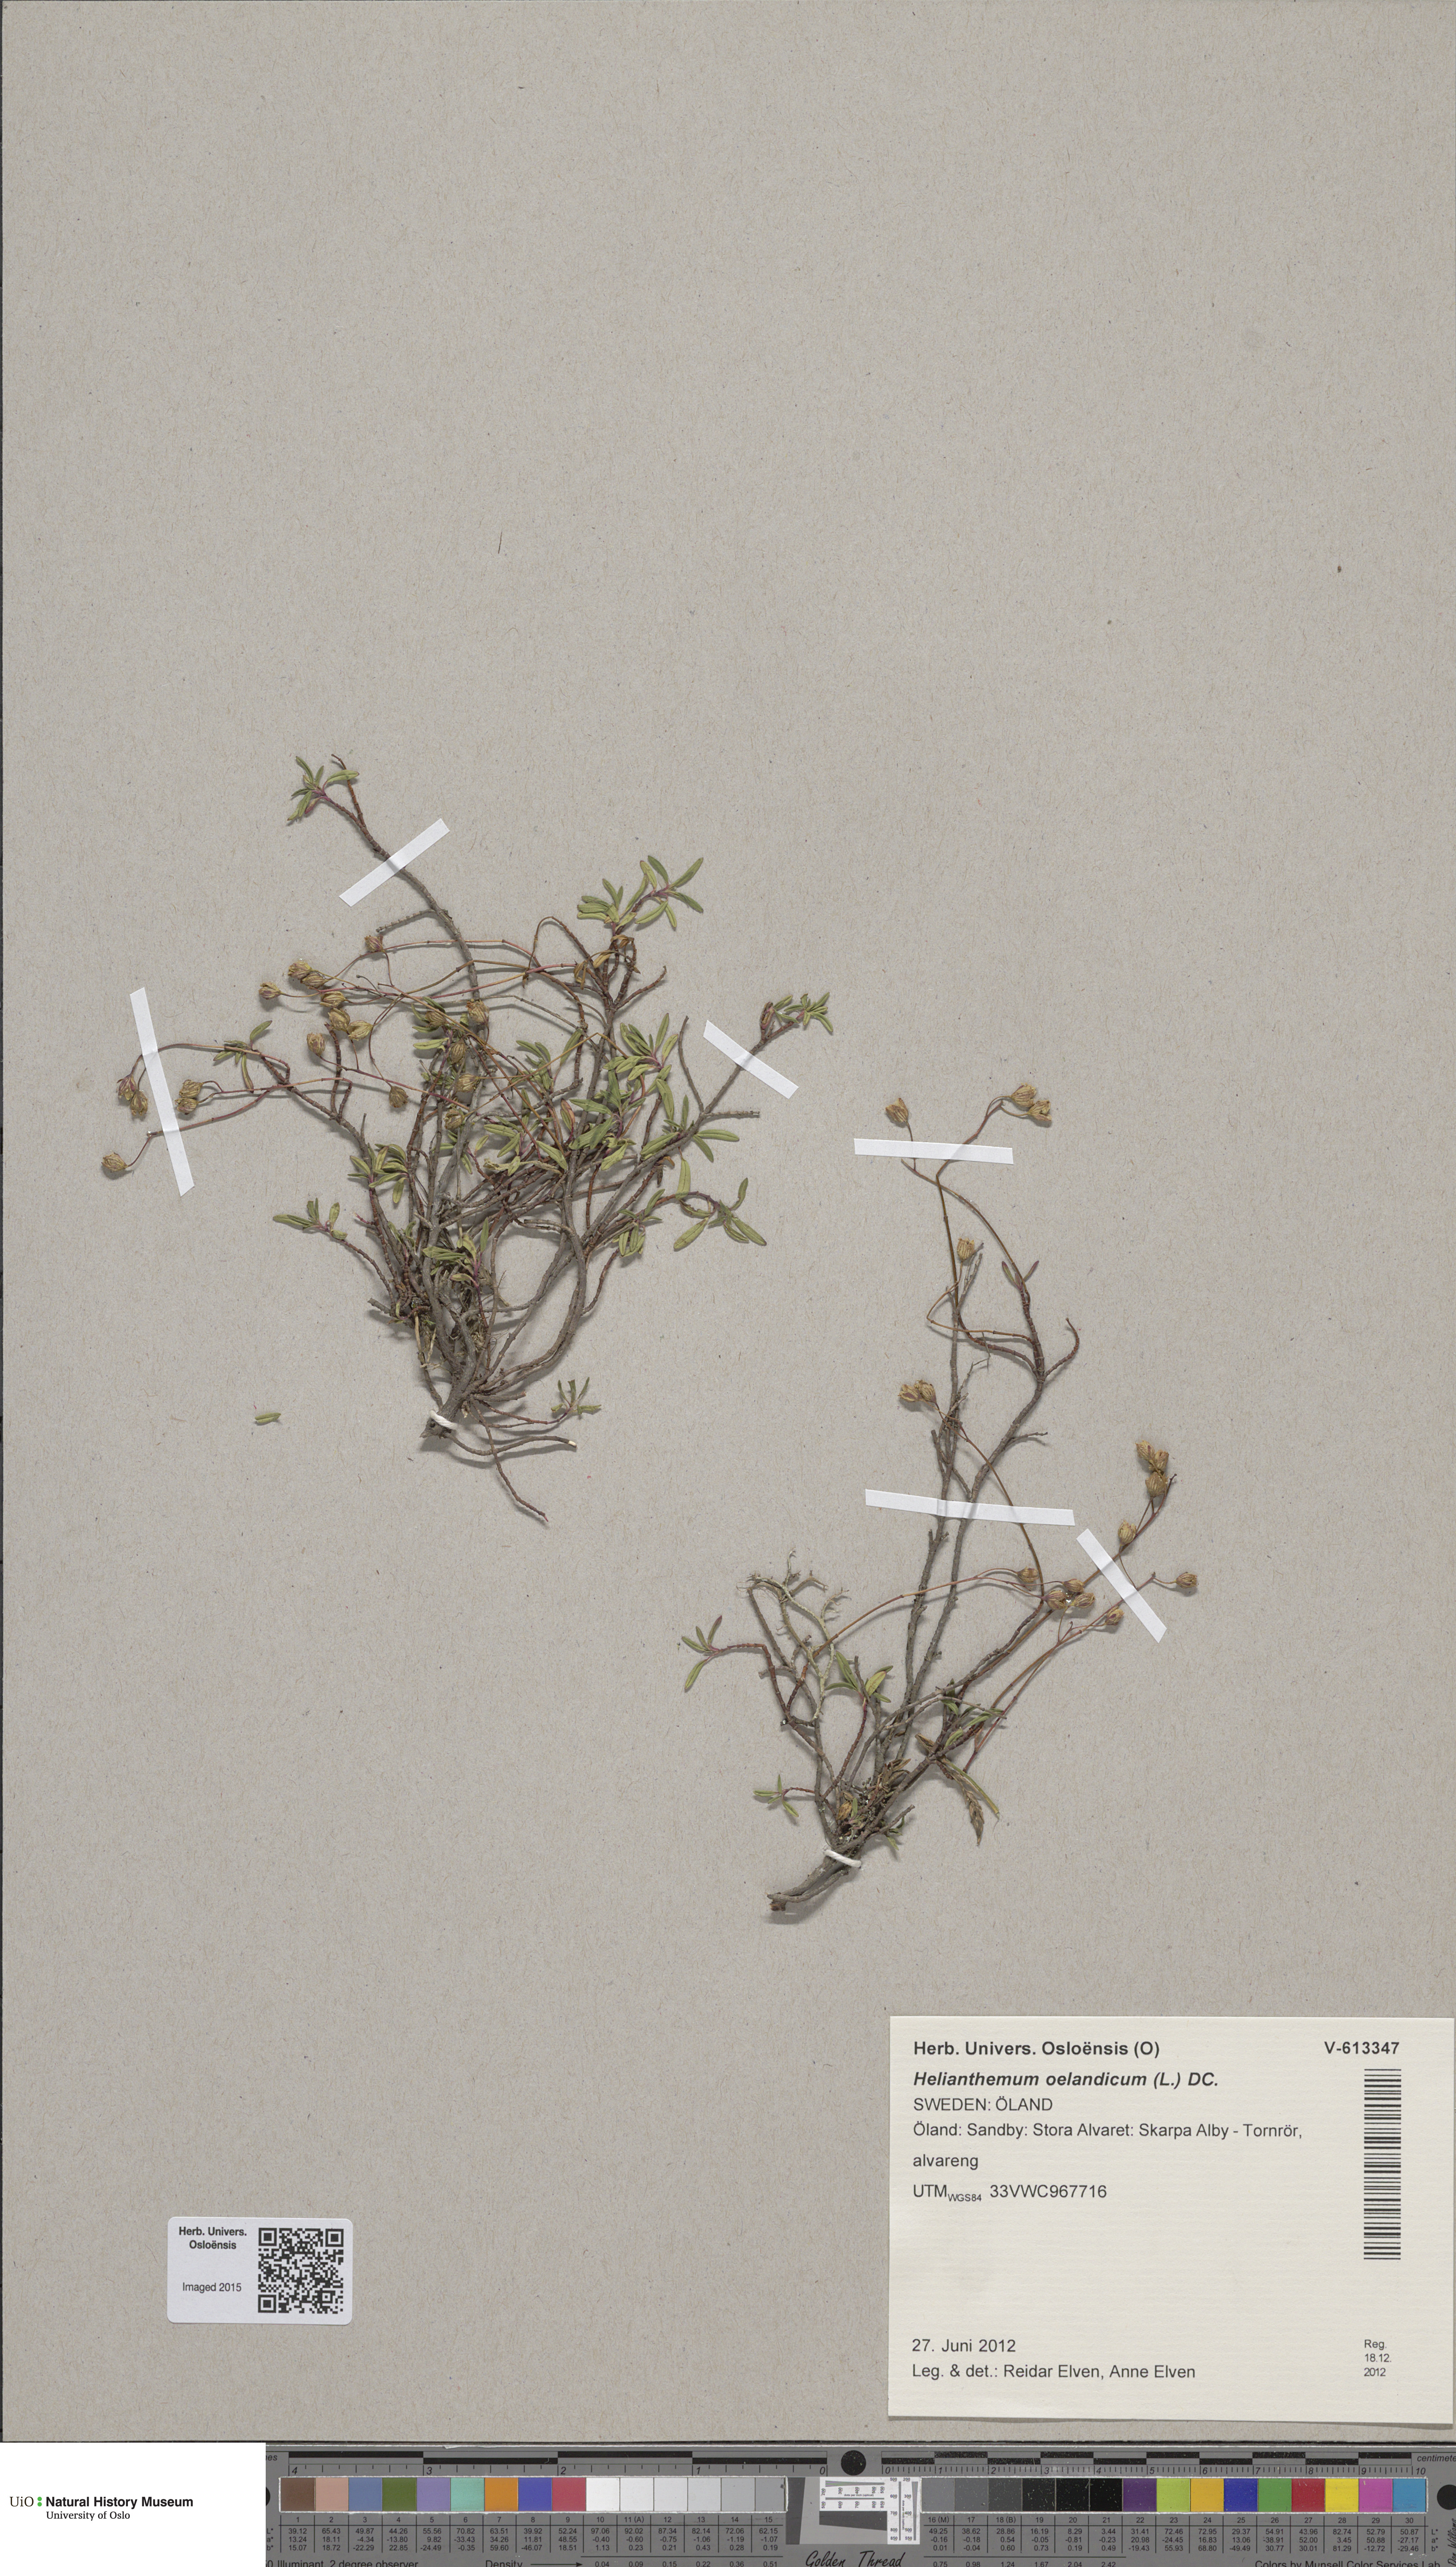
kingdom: Plantae
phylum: Tracheophyta
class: Magnoliopsida
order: Malvales
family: Cistaceae
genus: Helianthemum
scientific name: Helianthemum oelandicum
